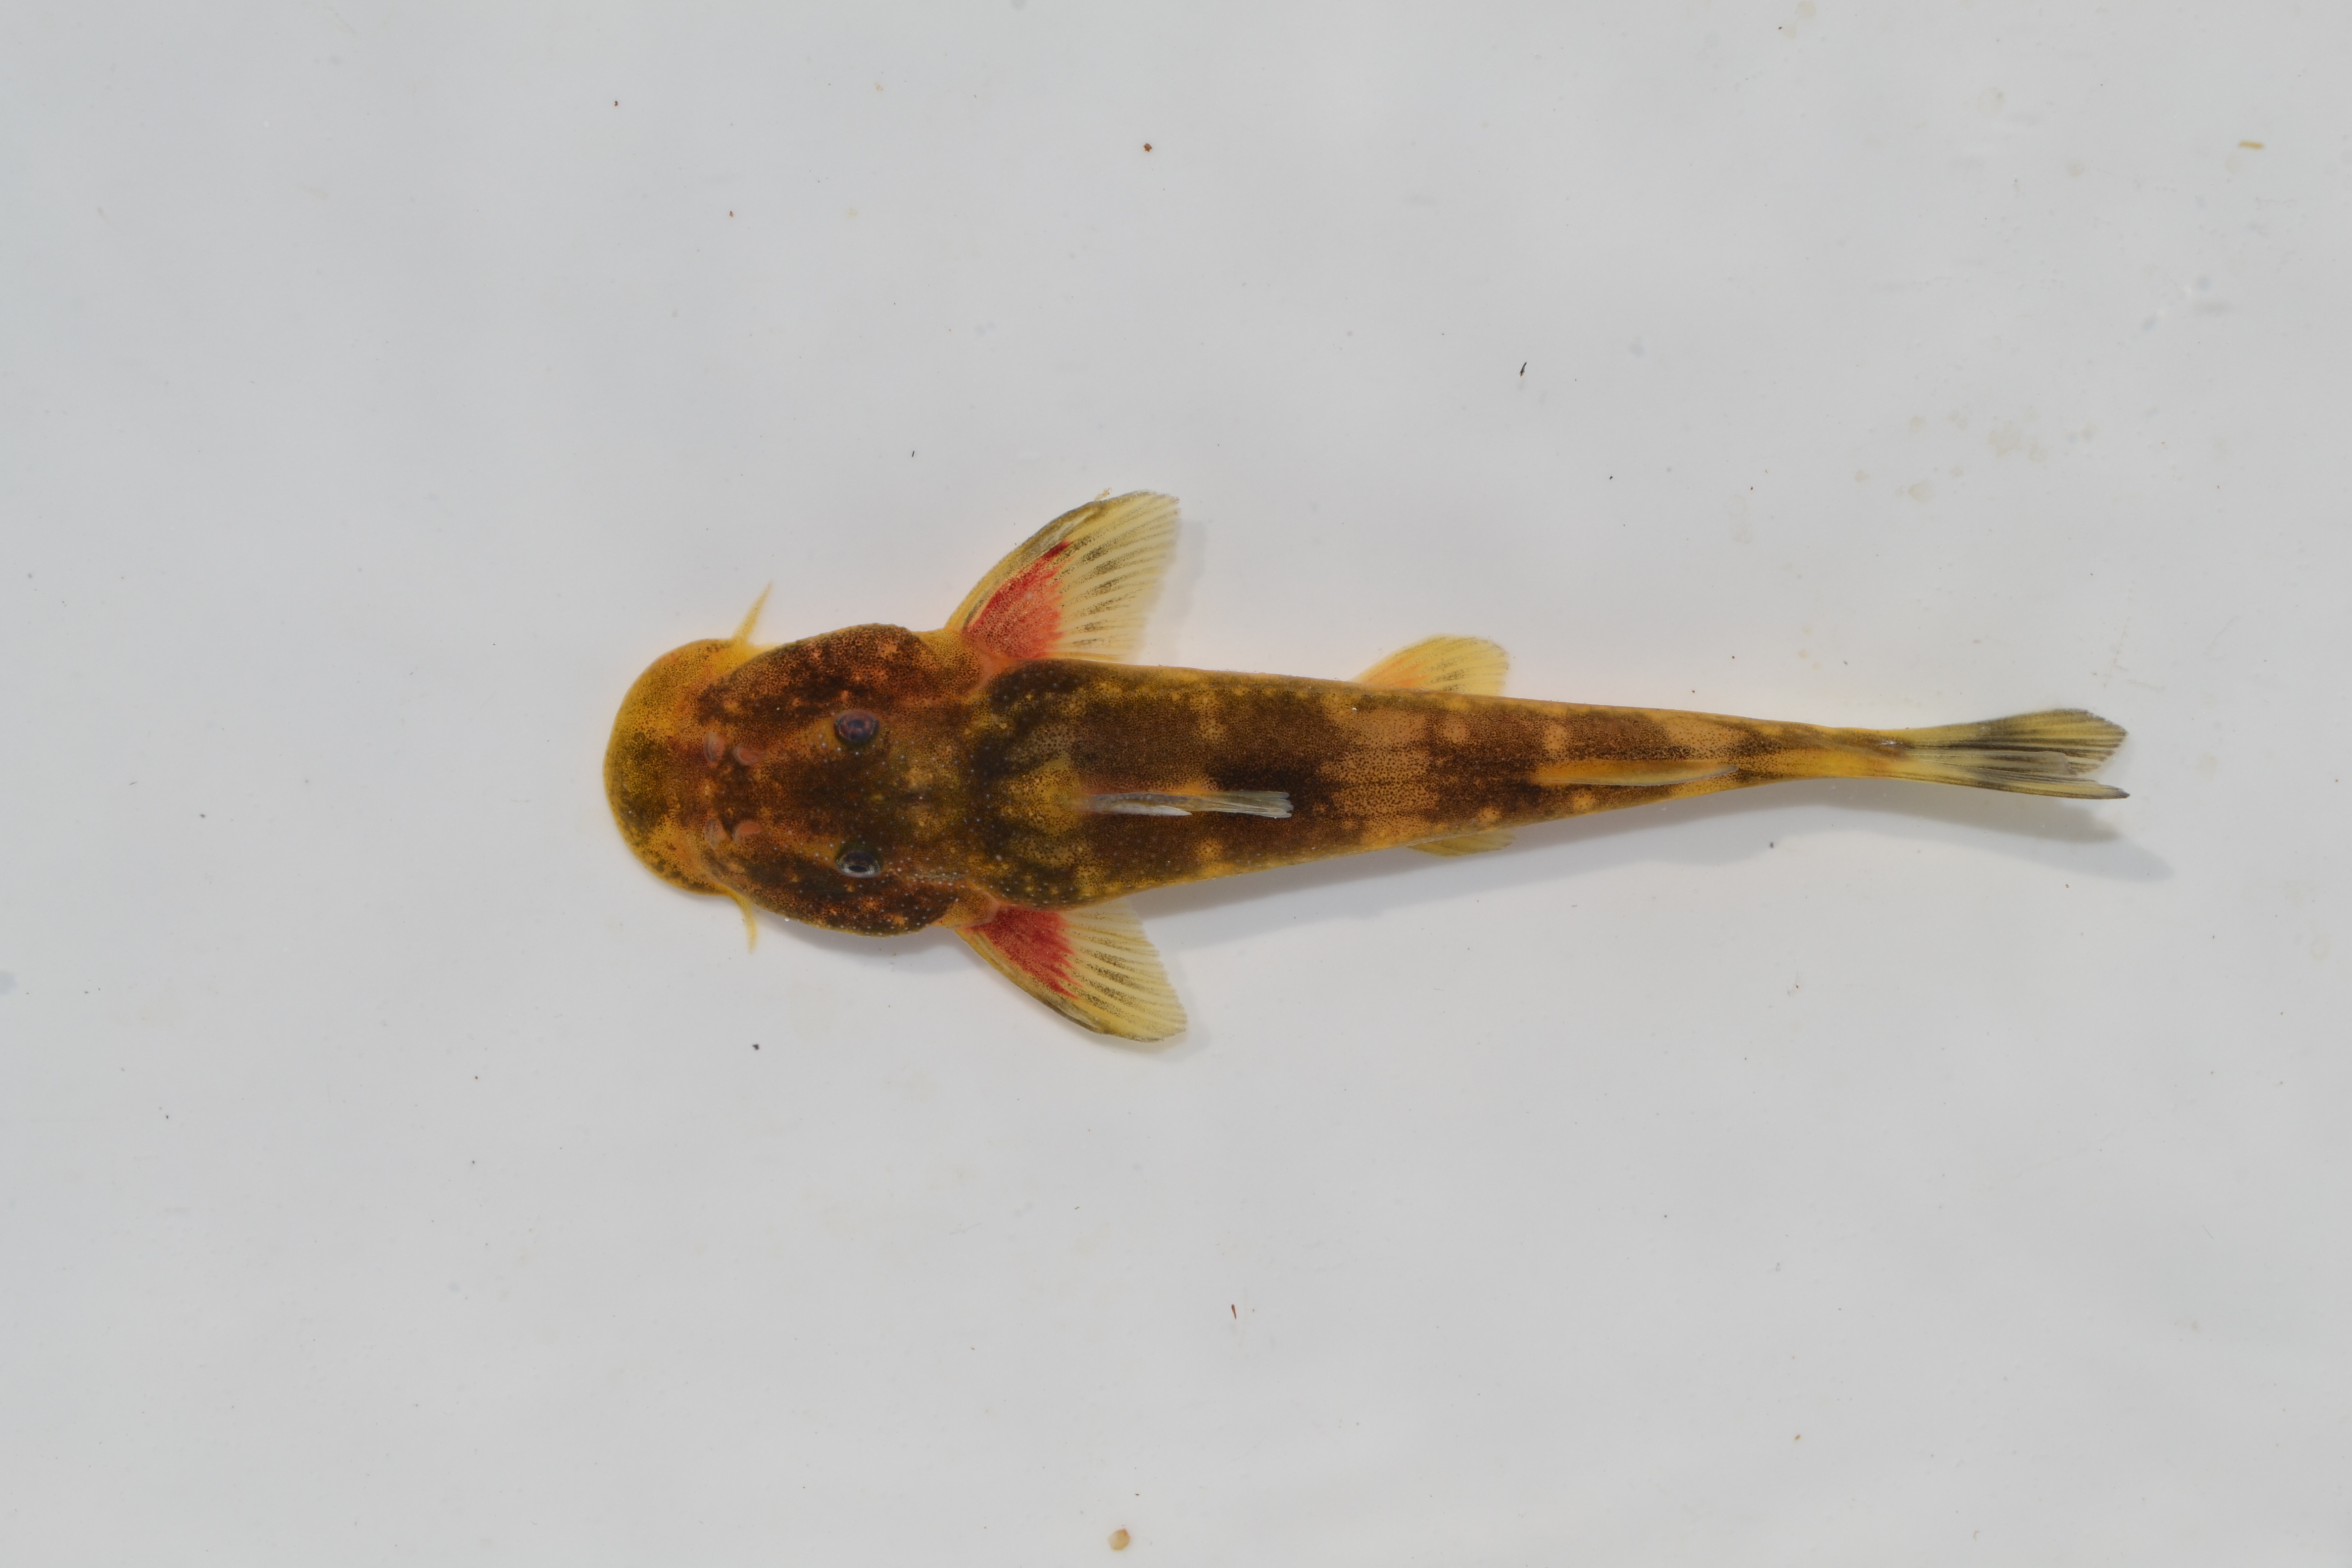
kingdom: Animalia
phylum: Chordata
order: Siluriformes
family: Mochokidae
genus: Chiloglanis
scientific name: Chiloglanis anoterus
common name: Pennant-tailed catlet
